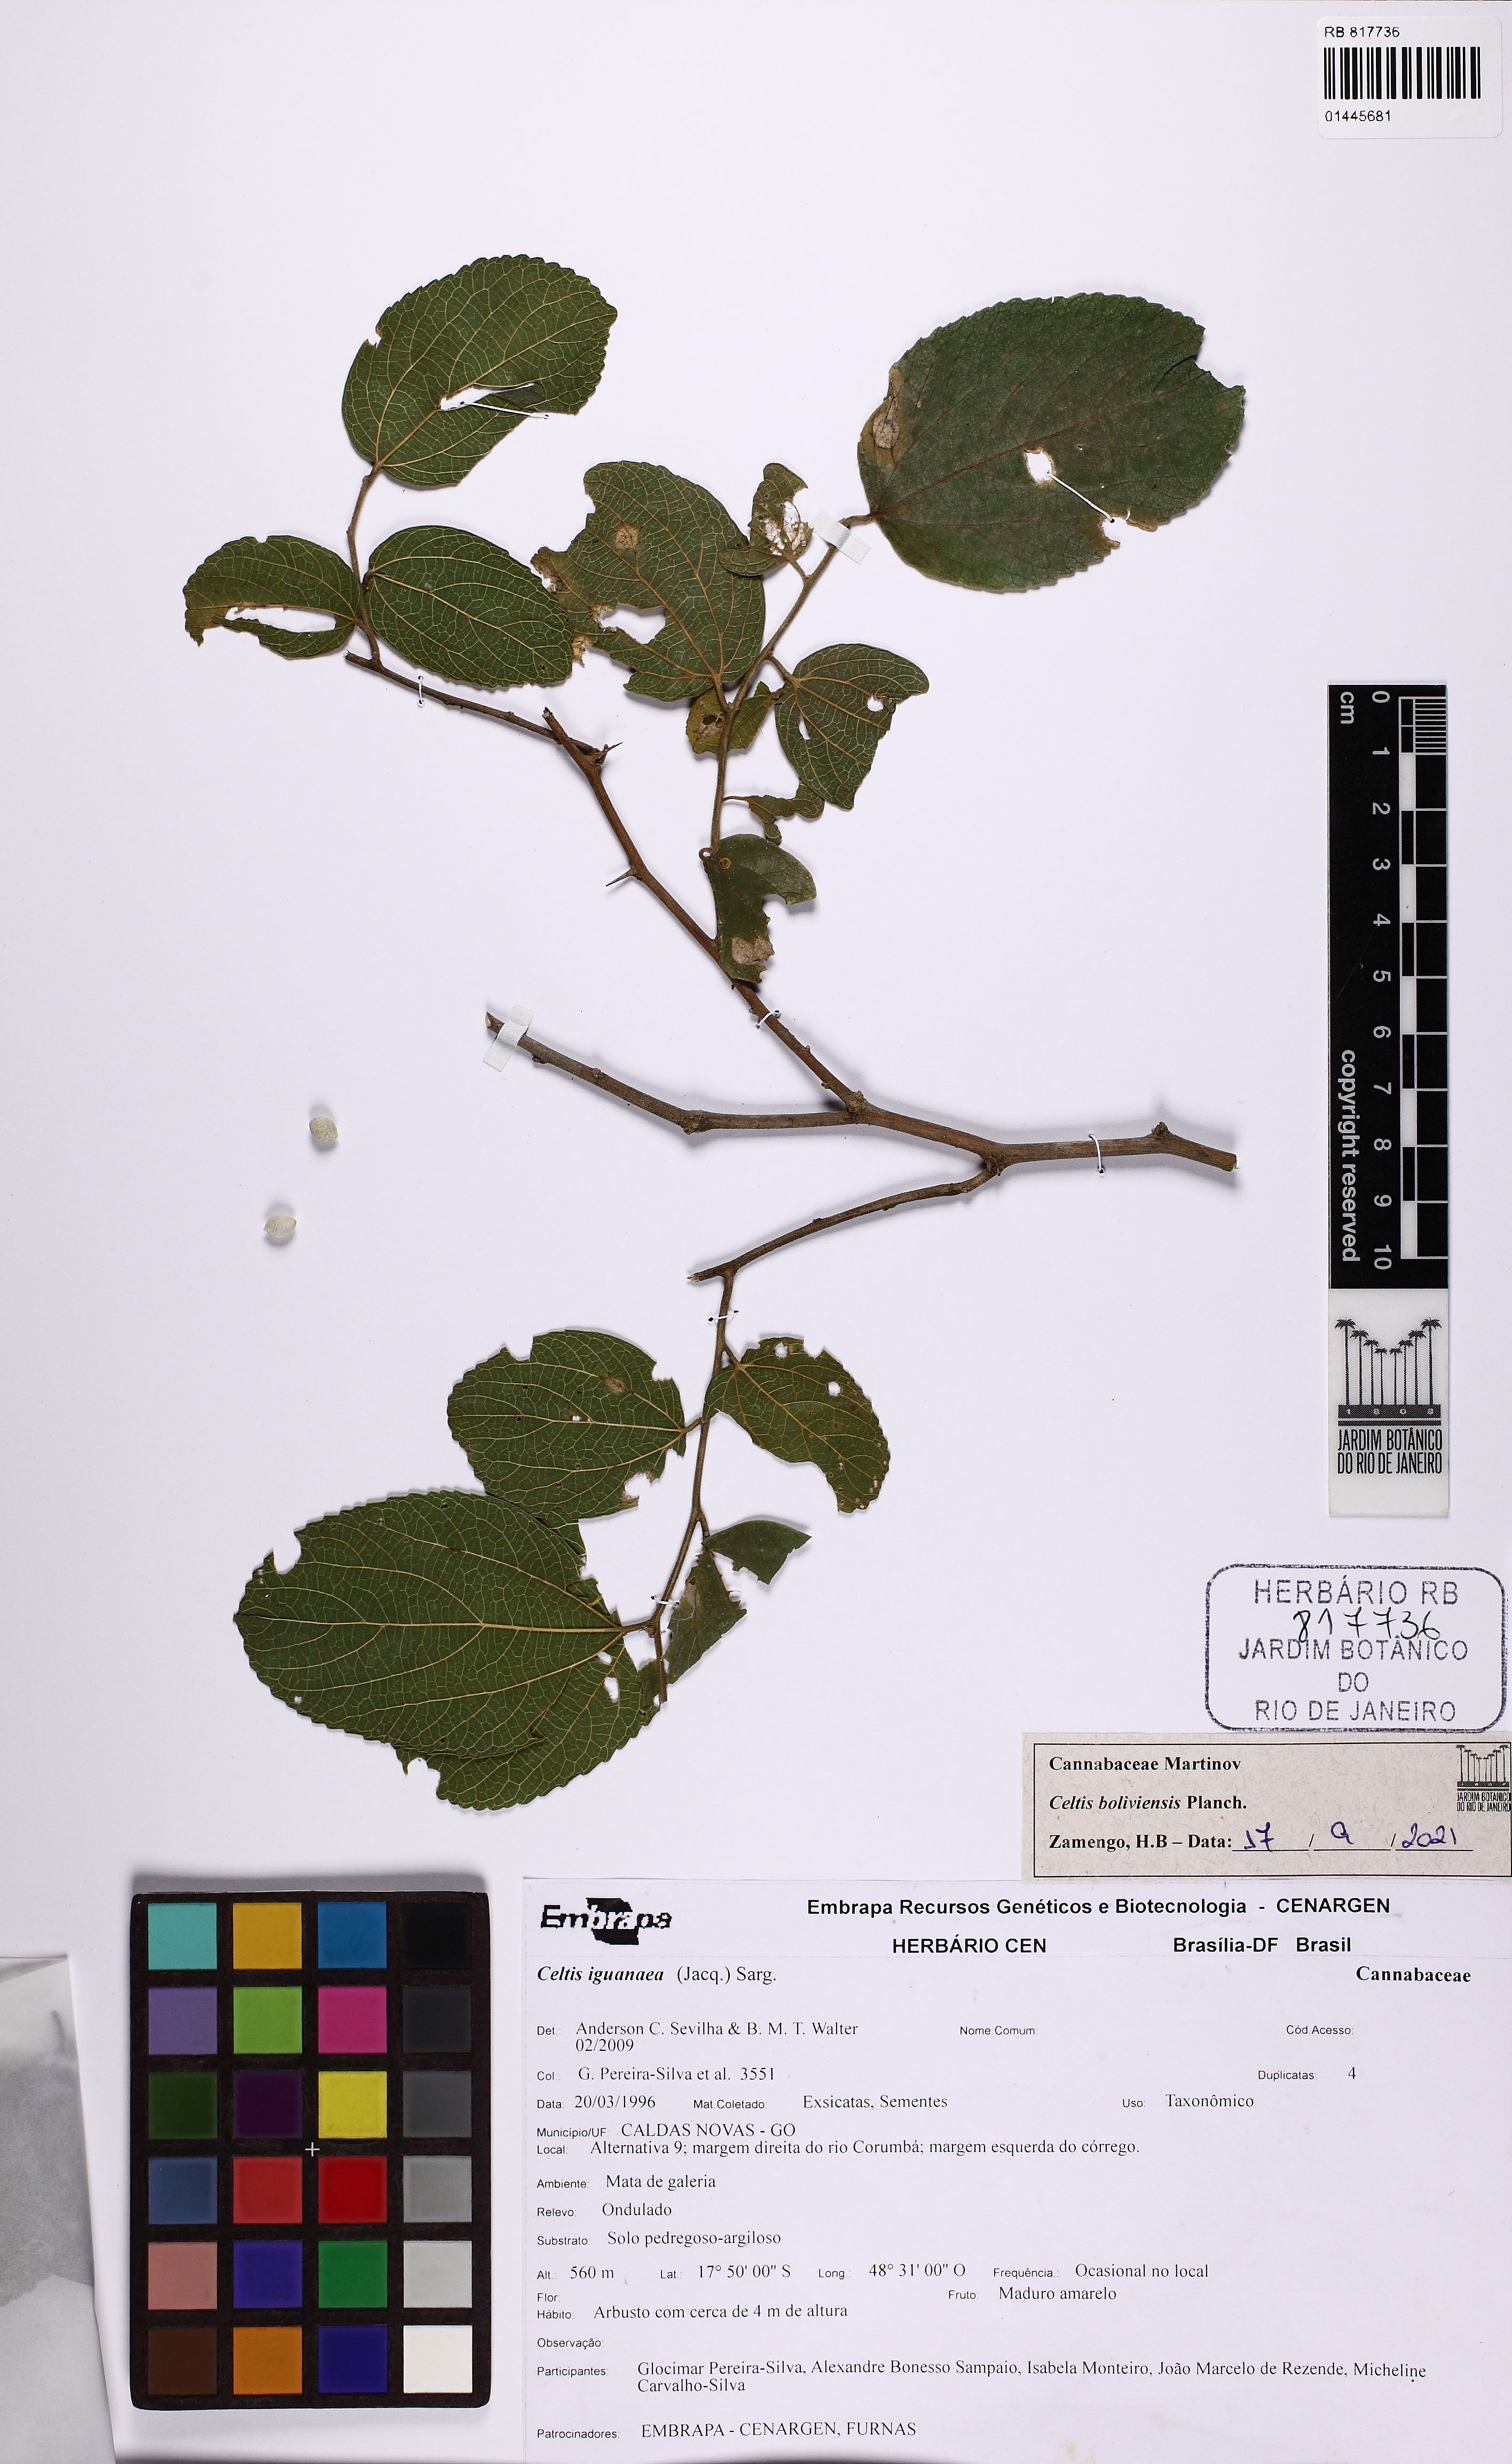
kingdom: Plantae
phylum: Tracheophyta
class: Magnoliopsida
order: Rosales
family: Cannabaceae
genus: Celtis
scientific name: Celtis brasiliensis
